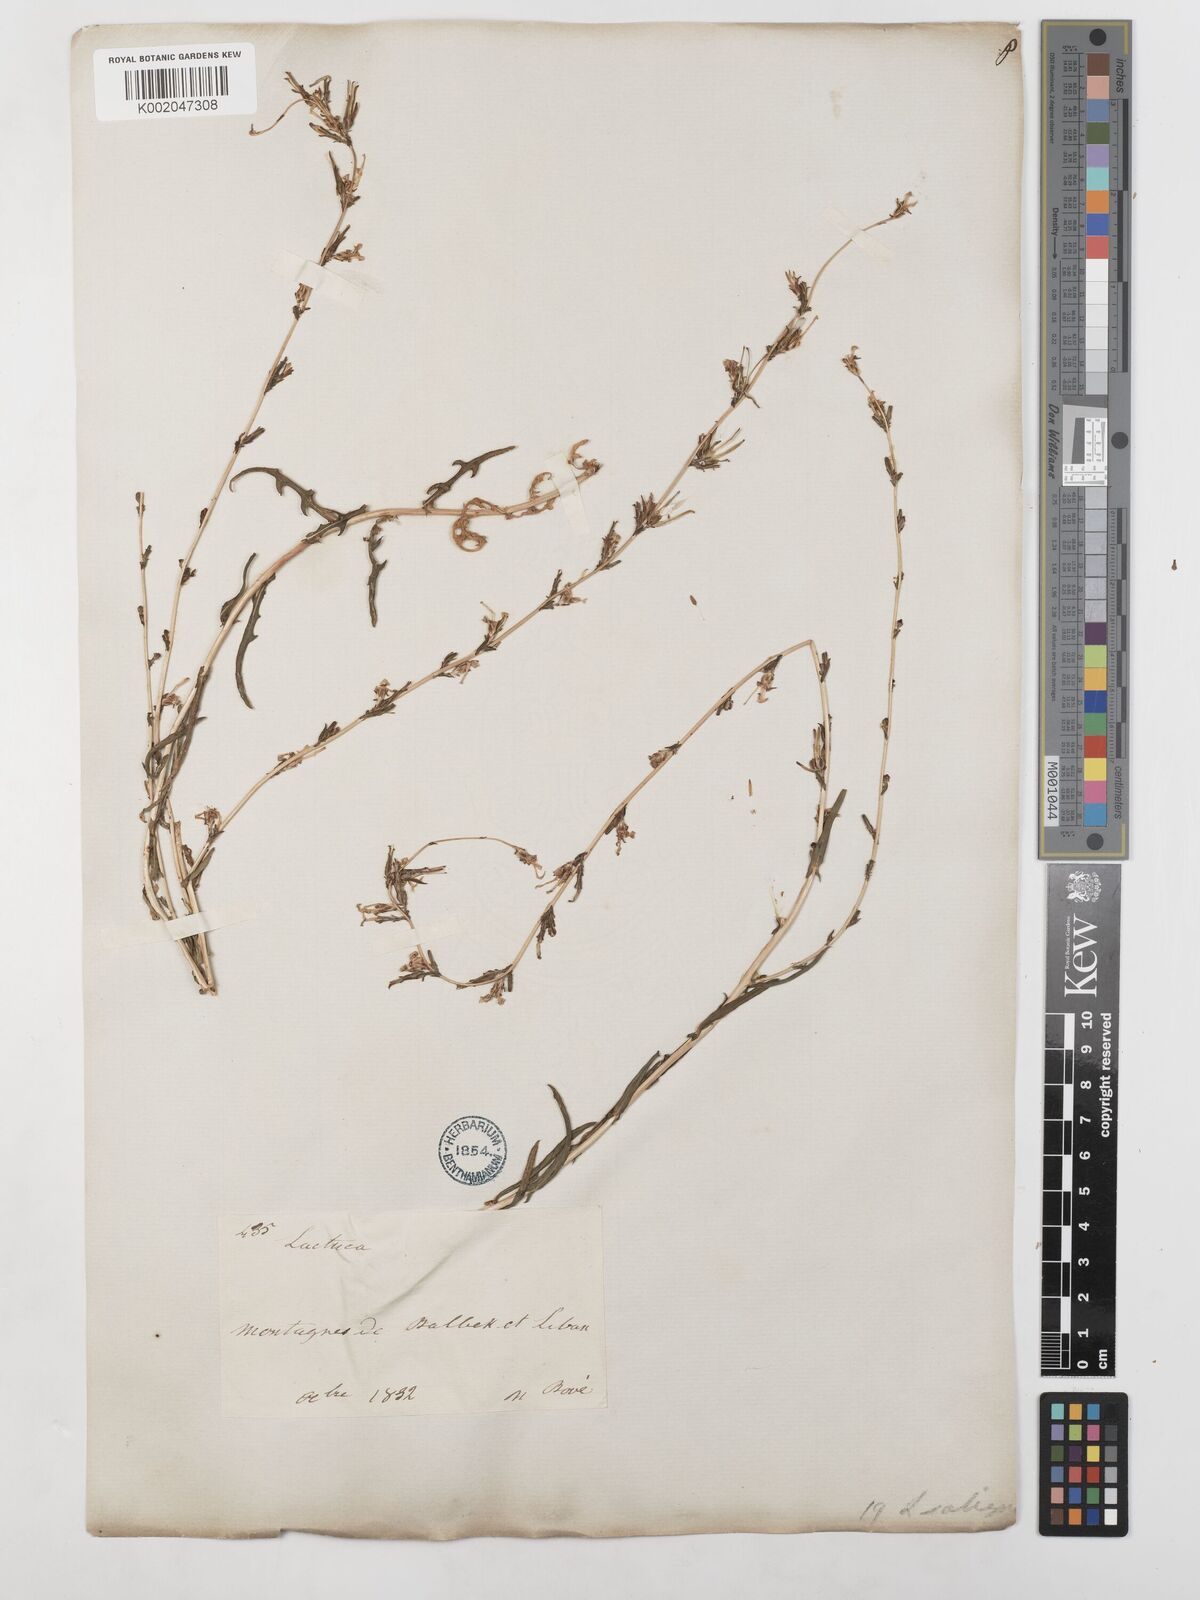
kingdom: Plantae
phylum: Tracheophyta
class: Magnoliopsida
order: Asterales
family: Asteraceae
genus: Lactuca
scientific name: Lactuca saligna
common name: Wild lettuce
